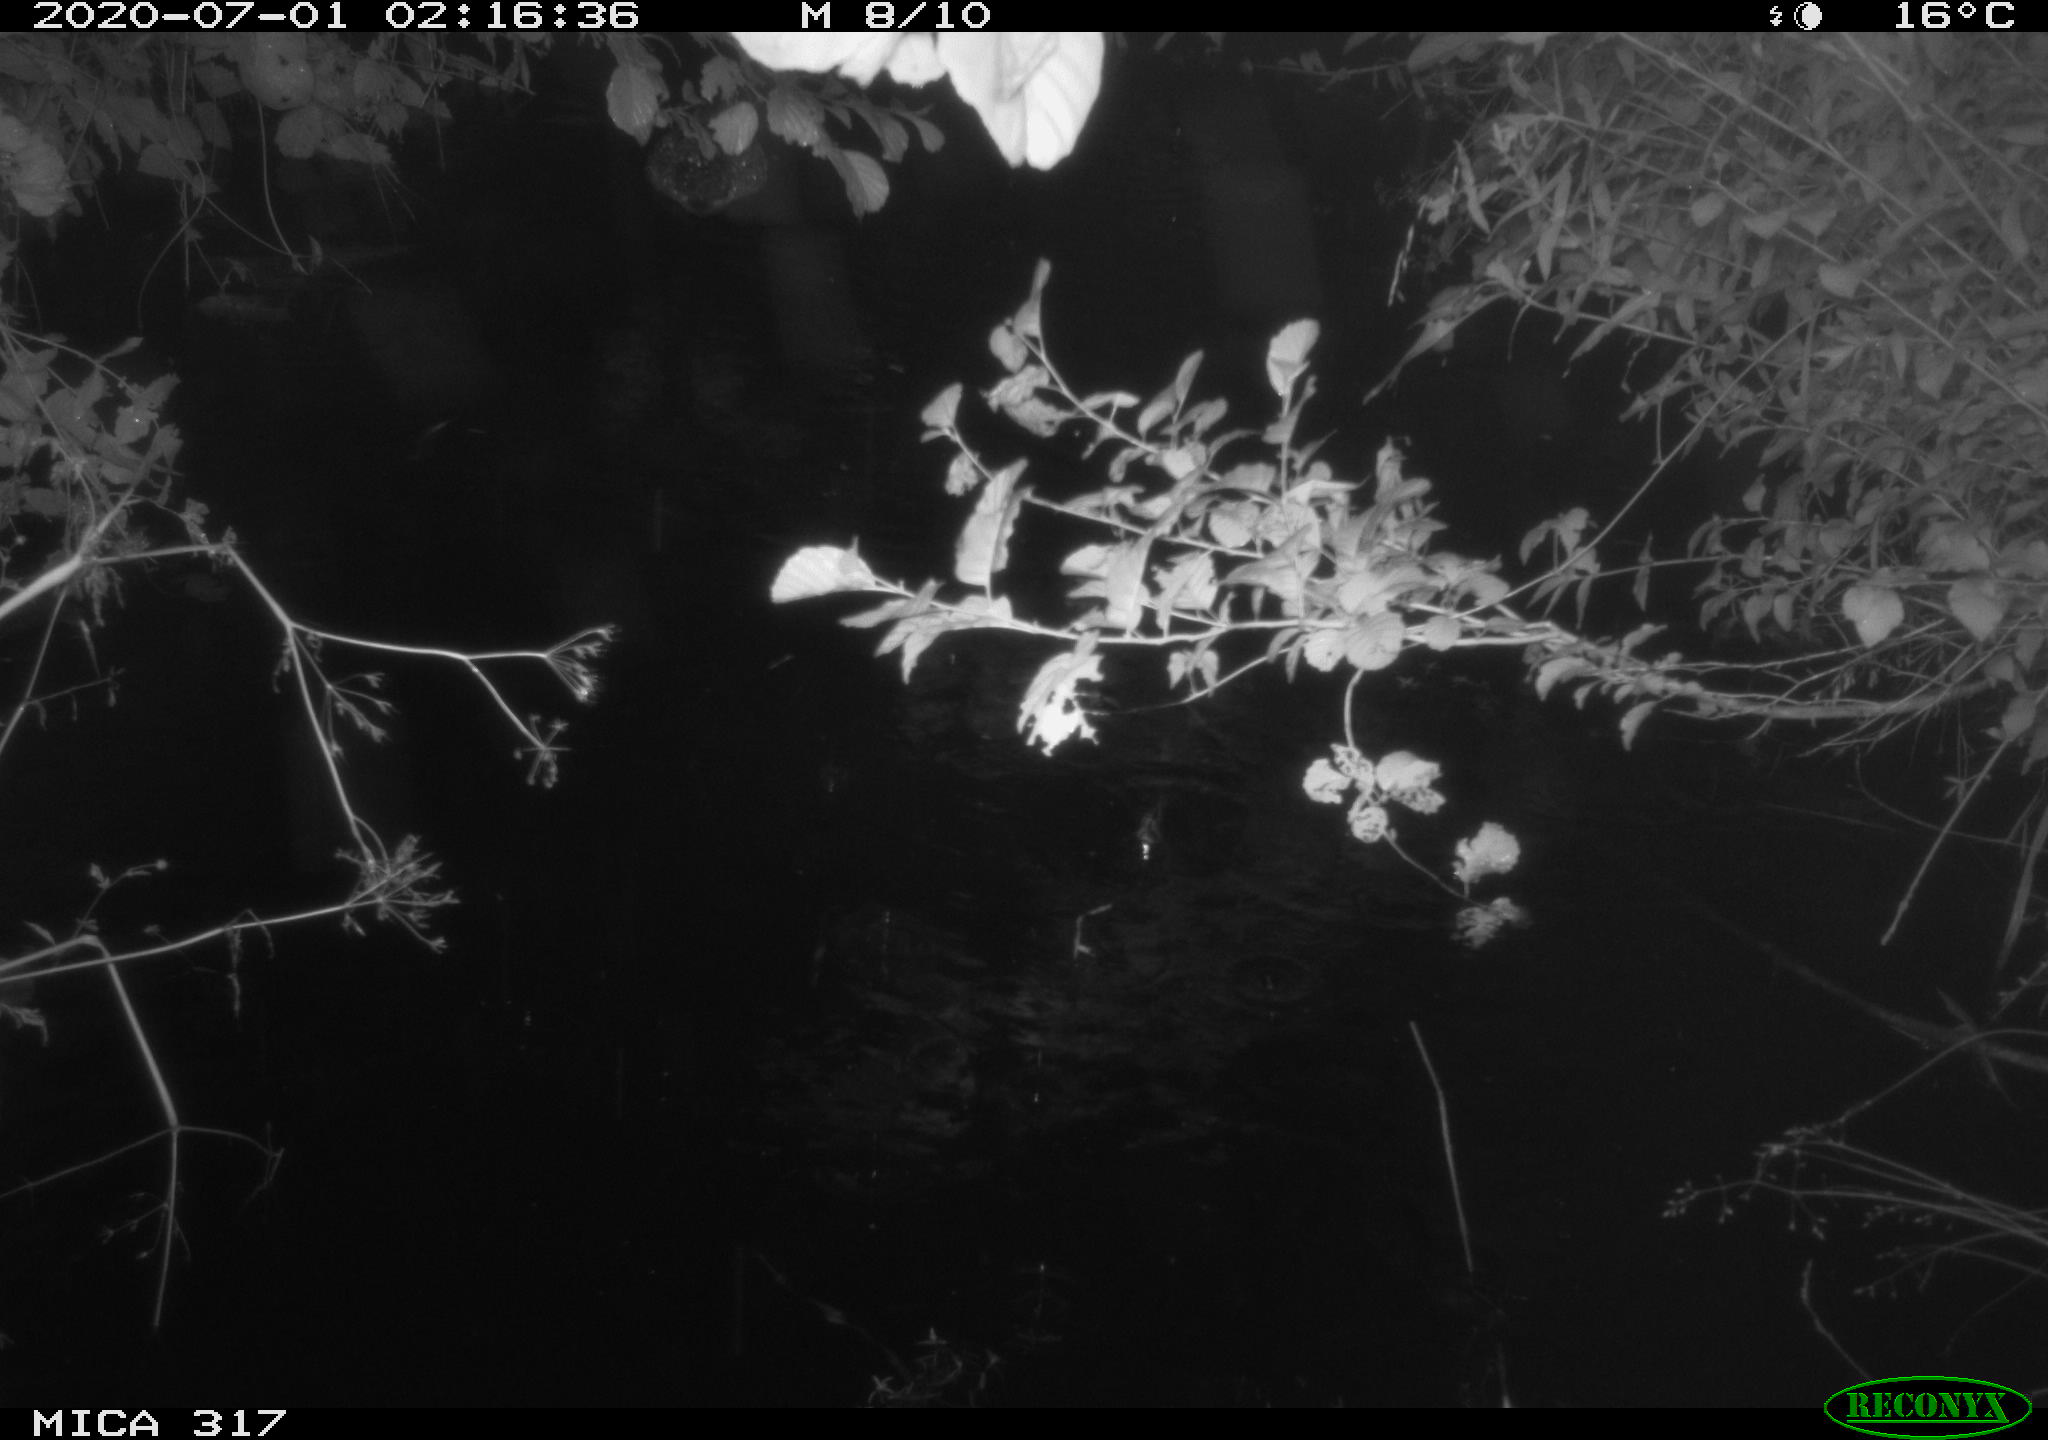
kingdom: Animalia
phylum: Chordata
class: Aves
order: Anseriformes
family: Anatidae
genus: Anas
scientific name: Anas platyrhynchos
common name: Mallard
